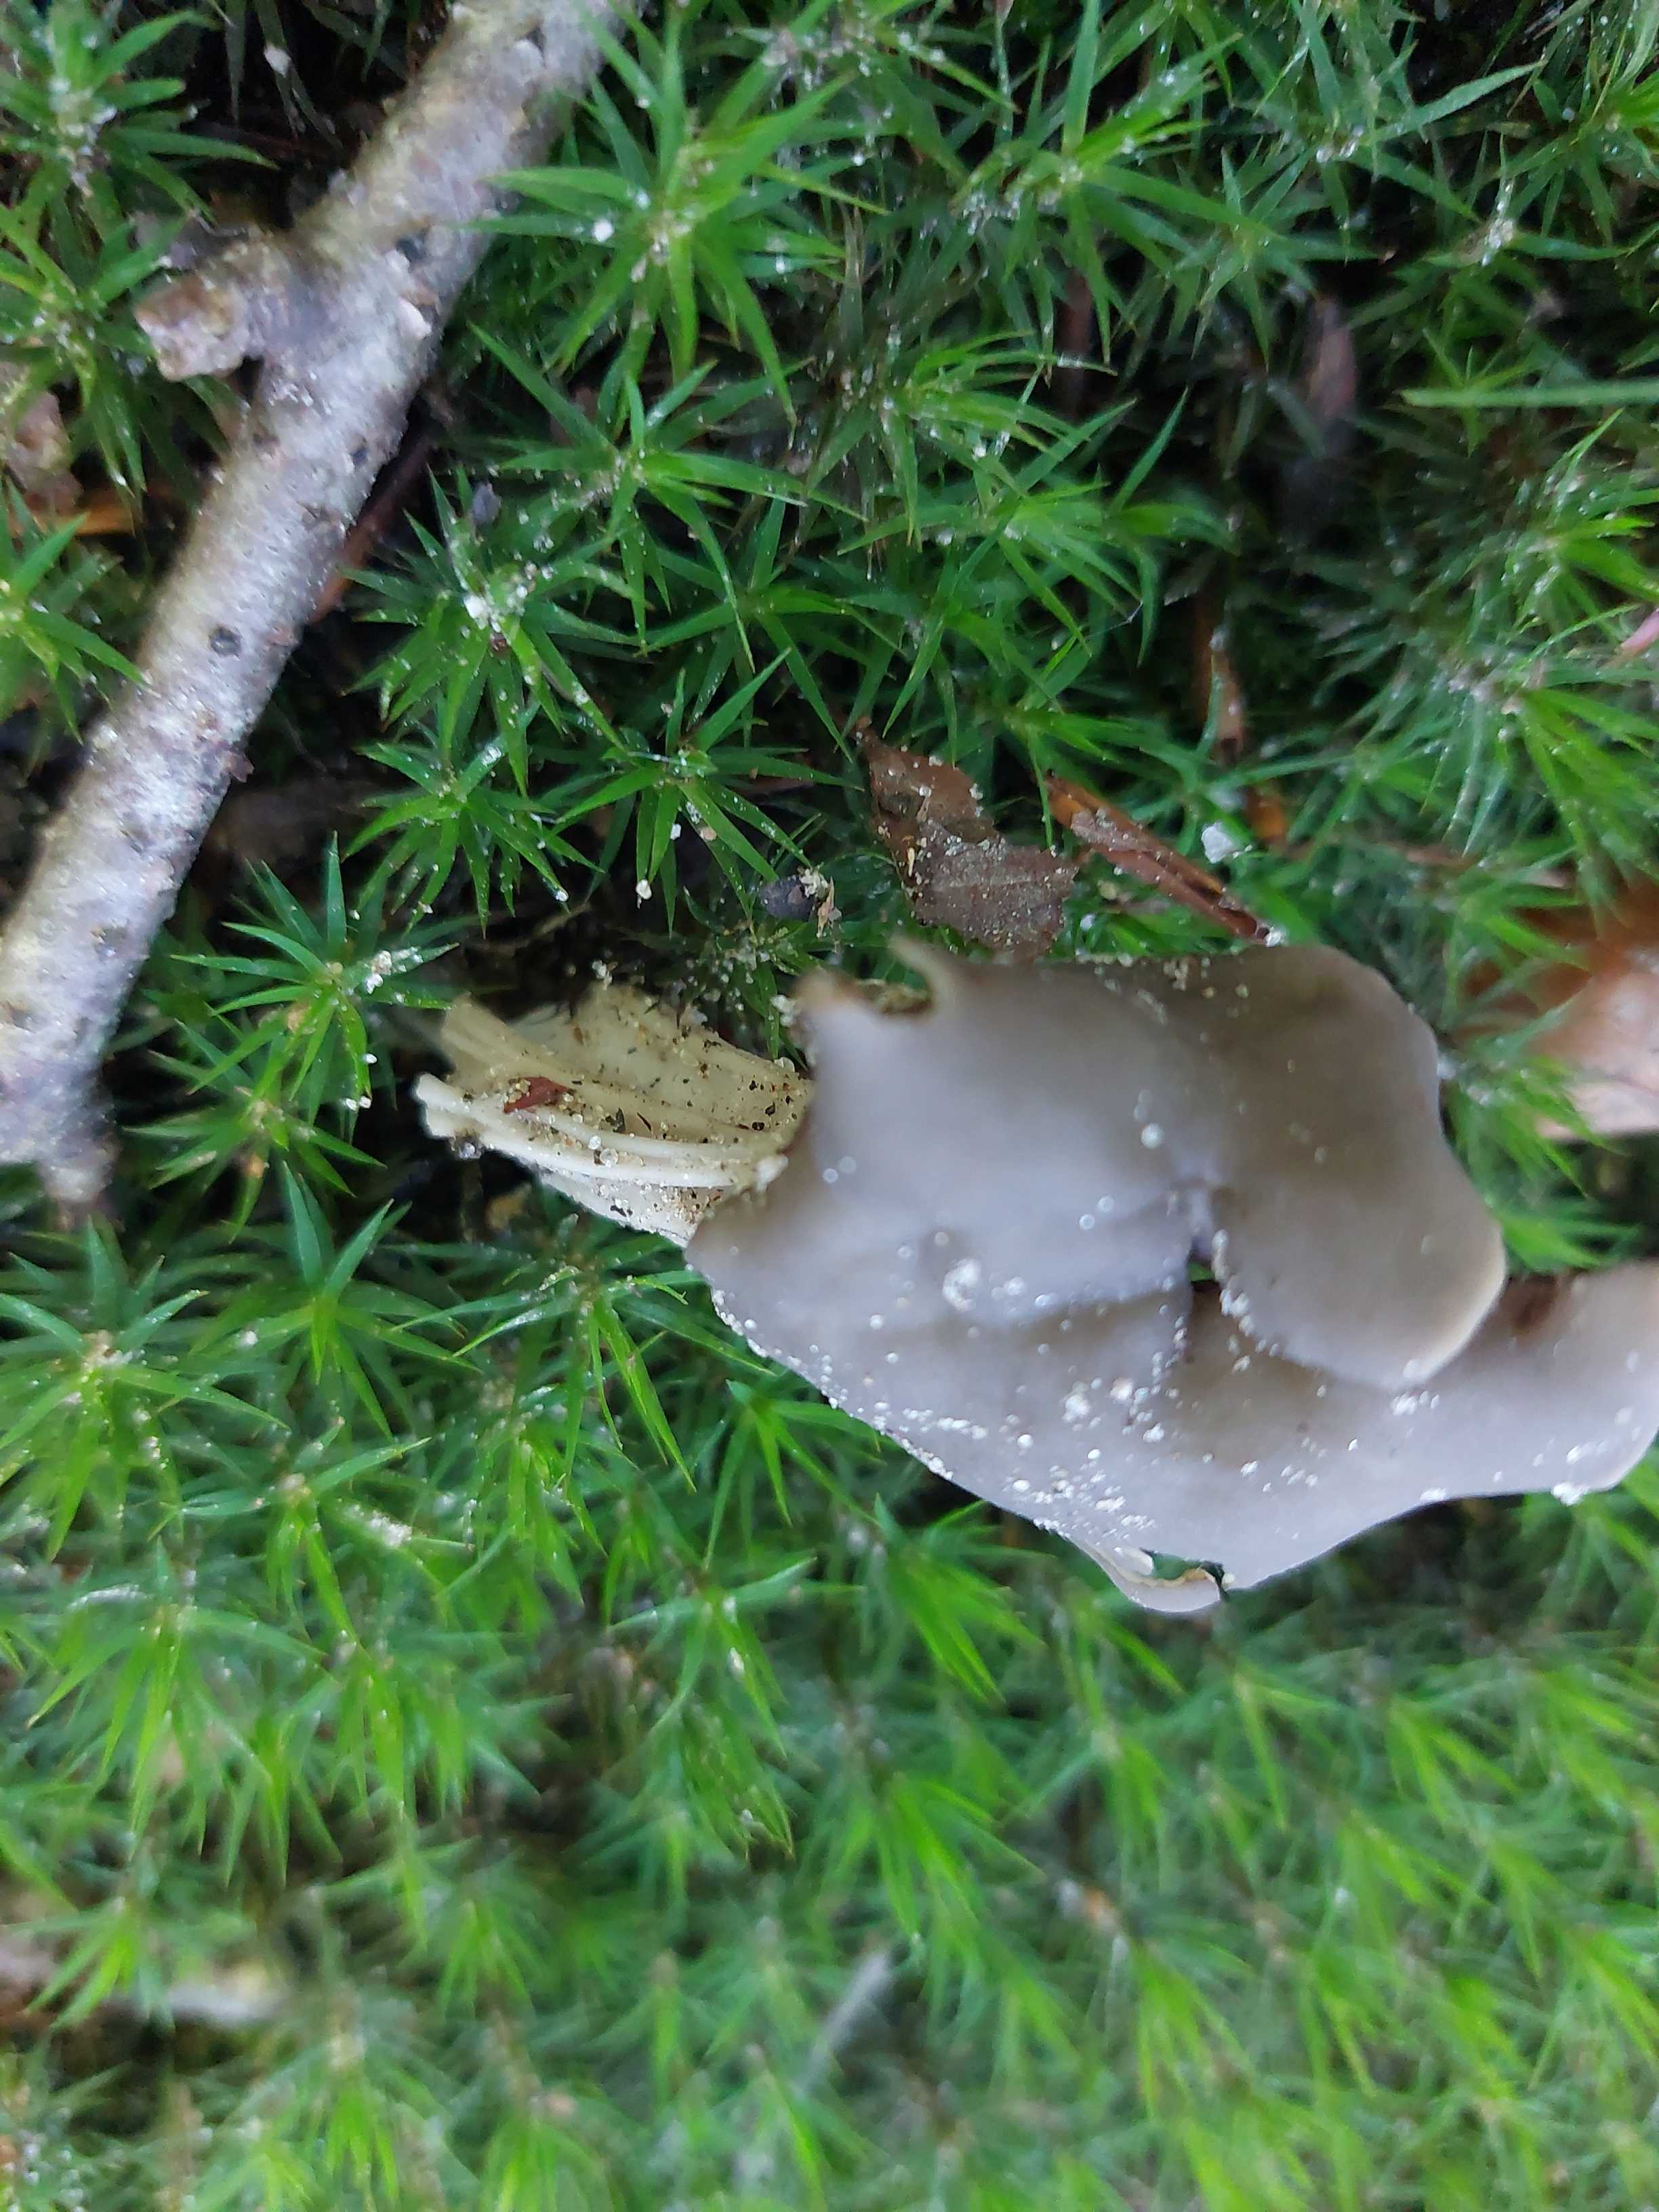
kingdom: Fungi
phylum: Ascomycota
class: Pezizomycetes
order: Pezizales
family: Helvellaceae
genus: Helvella
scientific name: Helvella lacunosa
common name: grubet foldhat
